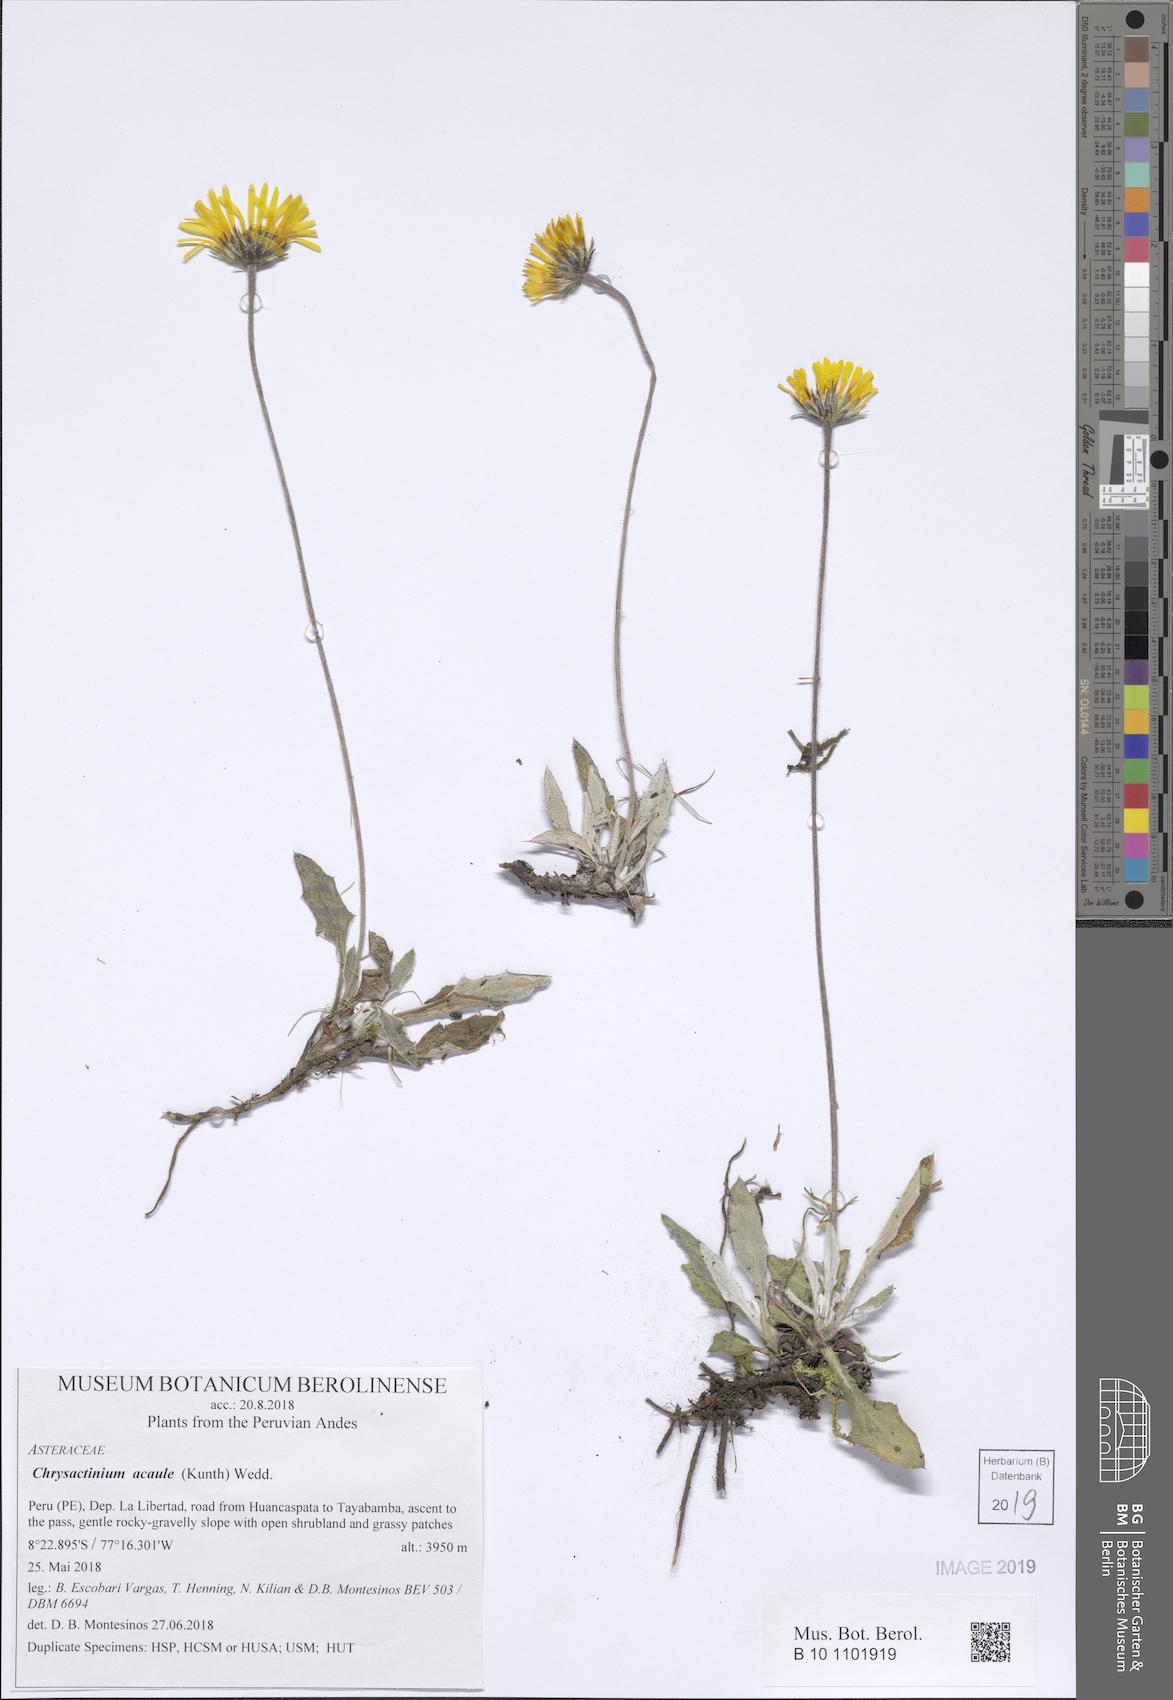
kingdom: Plantae
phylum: Tracheophyta
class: Magnoliopsida
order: Asterales
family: Asteraceae
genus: Chrysactinium
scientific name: Chrysactinium acaule
